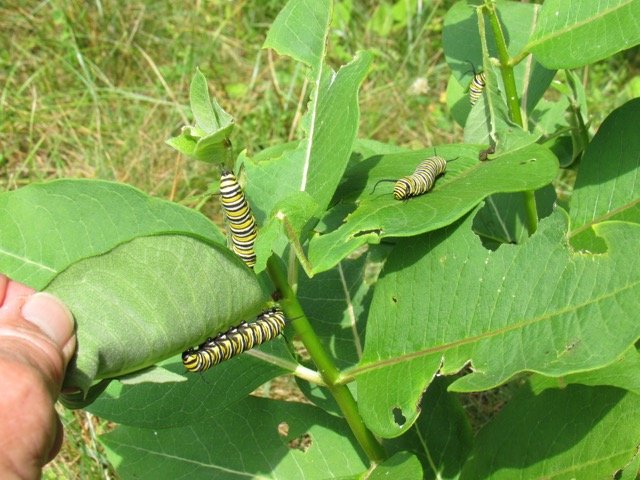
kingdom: Animalia
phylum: Arthropoda
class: Insecta
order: Lepidoptera
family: Nymphalidae
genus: Danaus
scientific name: Danaus plexippus
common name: Monarch
